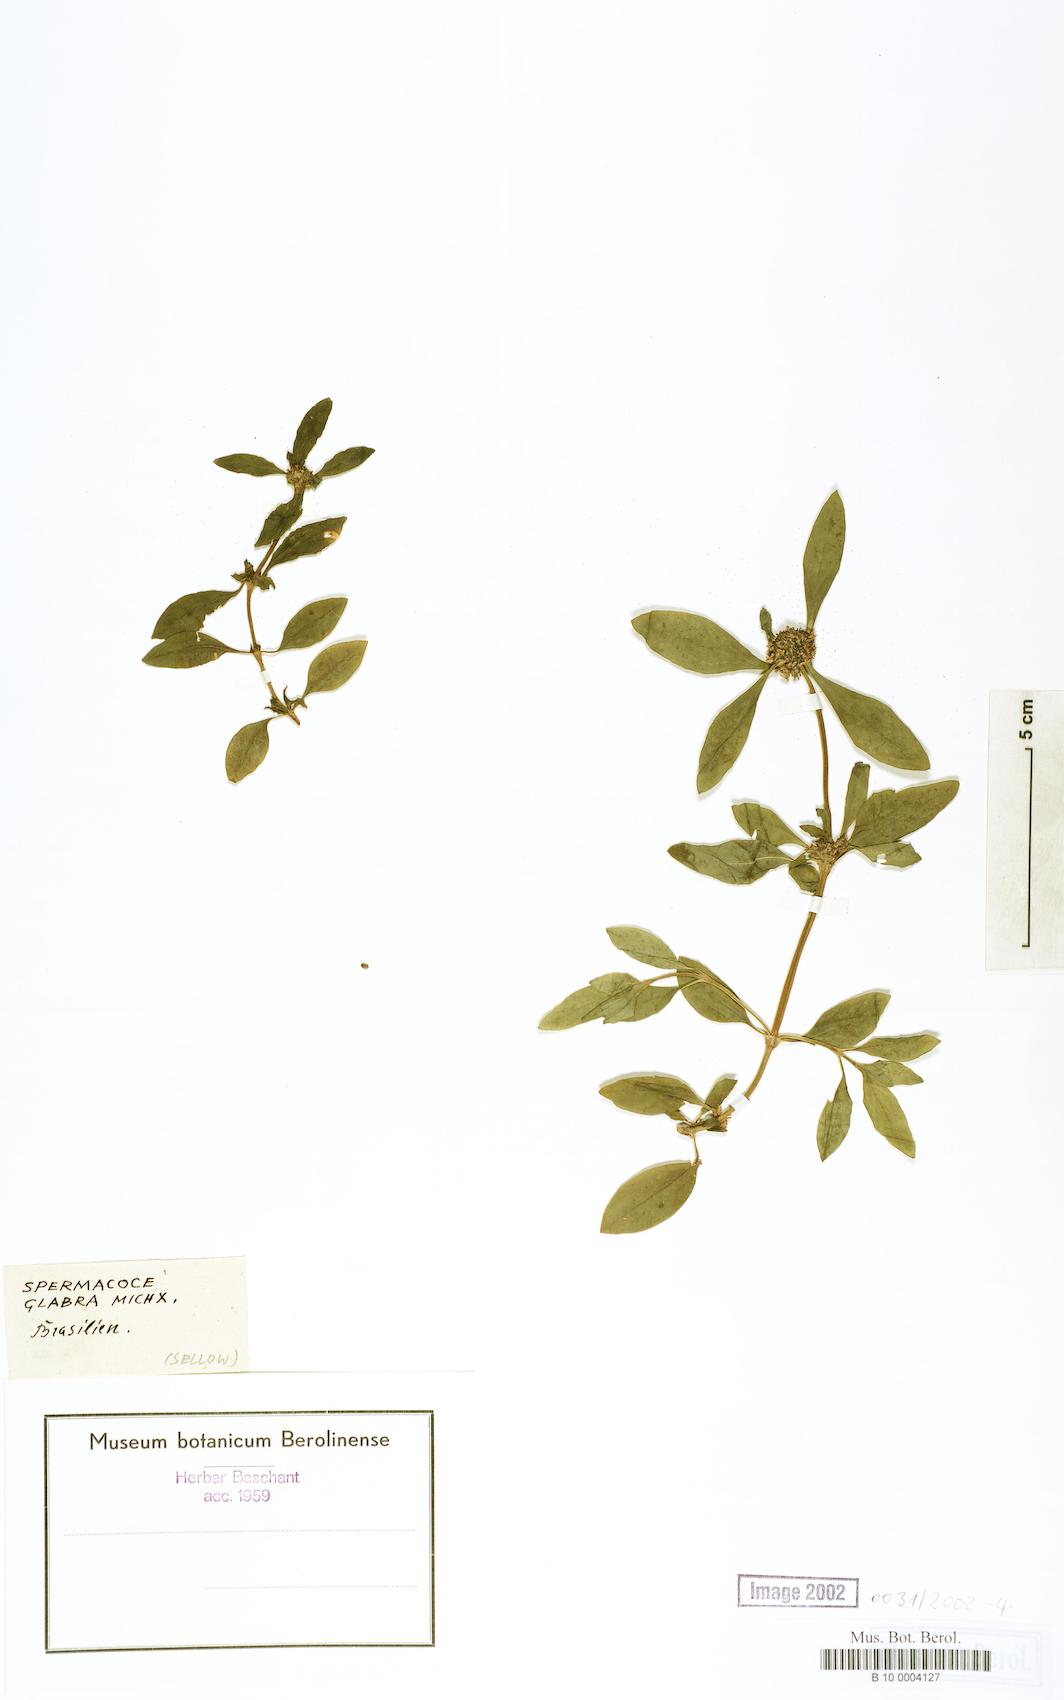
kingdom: Plantae
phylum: Tracheophyta
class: Magnoliopsida
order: Gentianales
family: Rubiaceae
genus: Spermacoce
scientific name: Spermacoce glabra
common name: Smooth buttonweed
